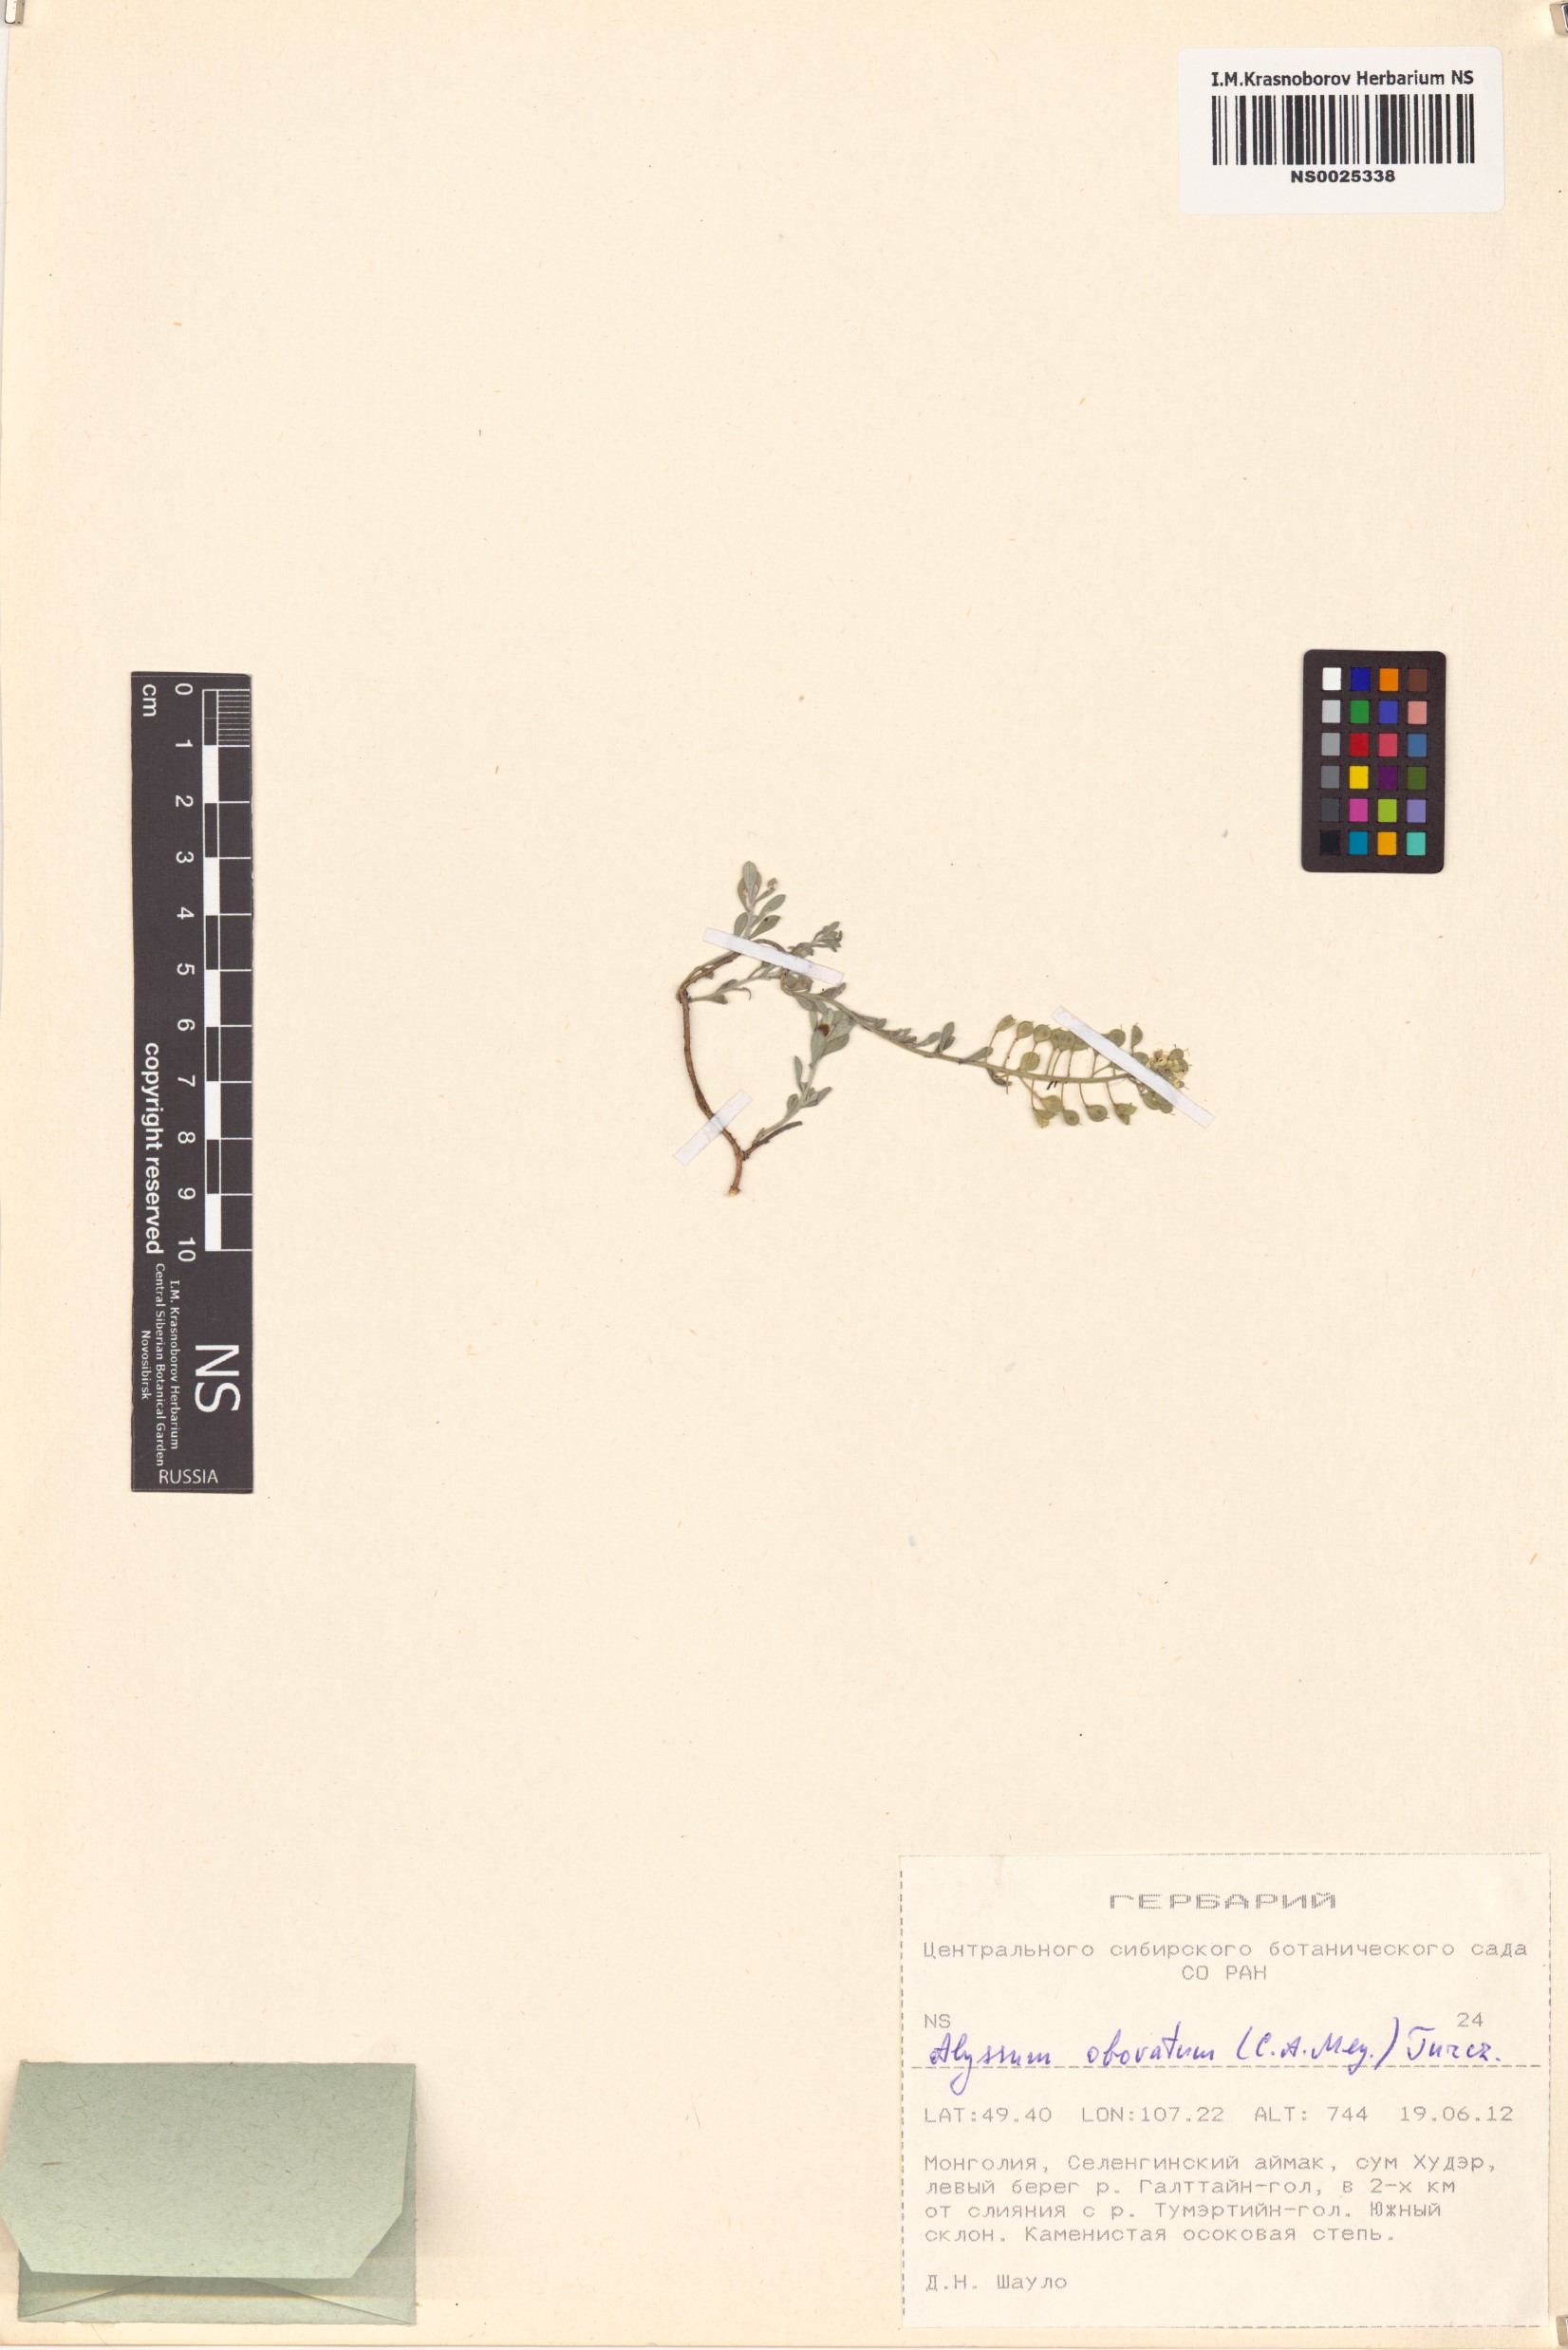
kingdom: Plantae
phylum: Tracheophyta
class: Magnoliopsida
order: Brassicales
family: Brassicaceae
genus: Odontarrhena
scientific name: Odontarrhena obovata
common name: American alyssum
